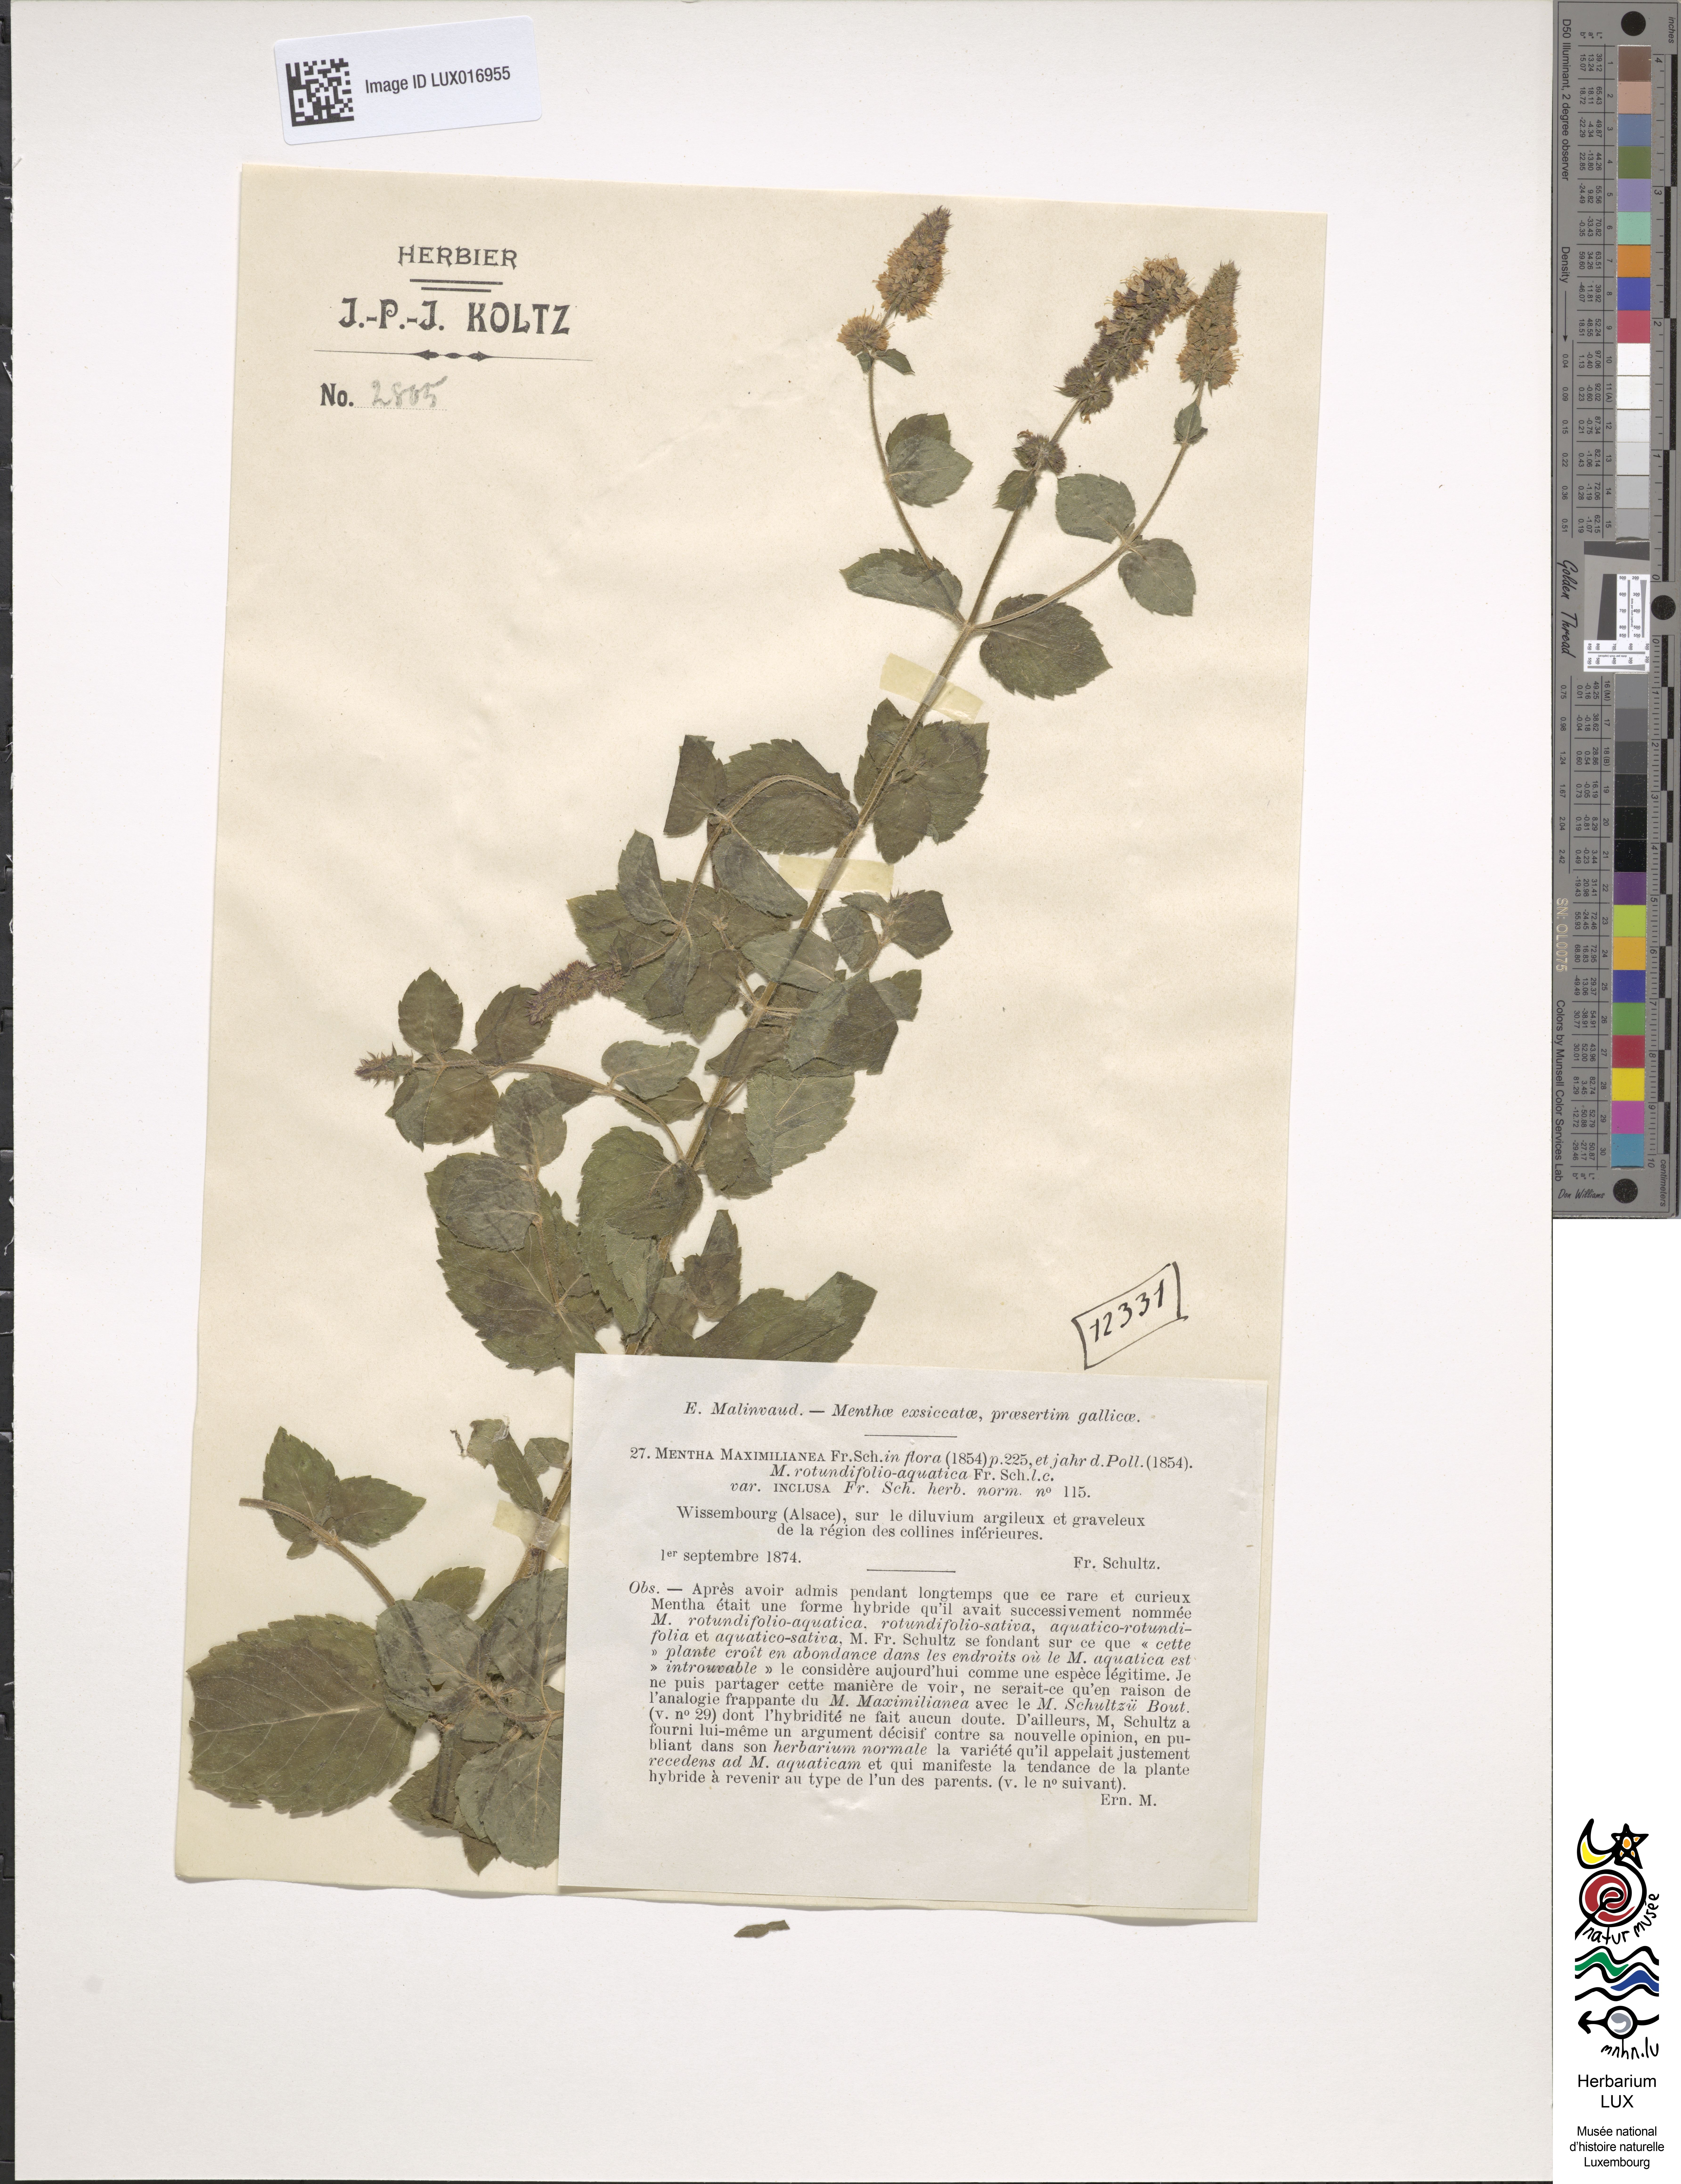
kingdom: Plantae
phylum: Tracheophyta
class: Magnoliopsida
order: Lamiales
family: Lamiaceae
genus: Mentha
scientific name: Mentha suavis
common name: Sweet mint
